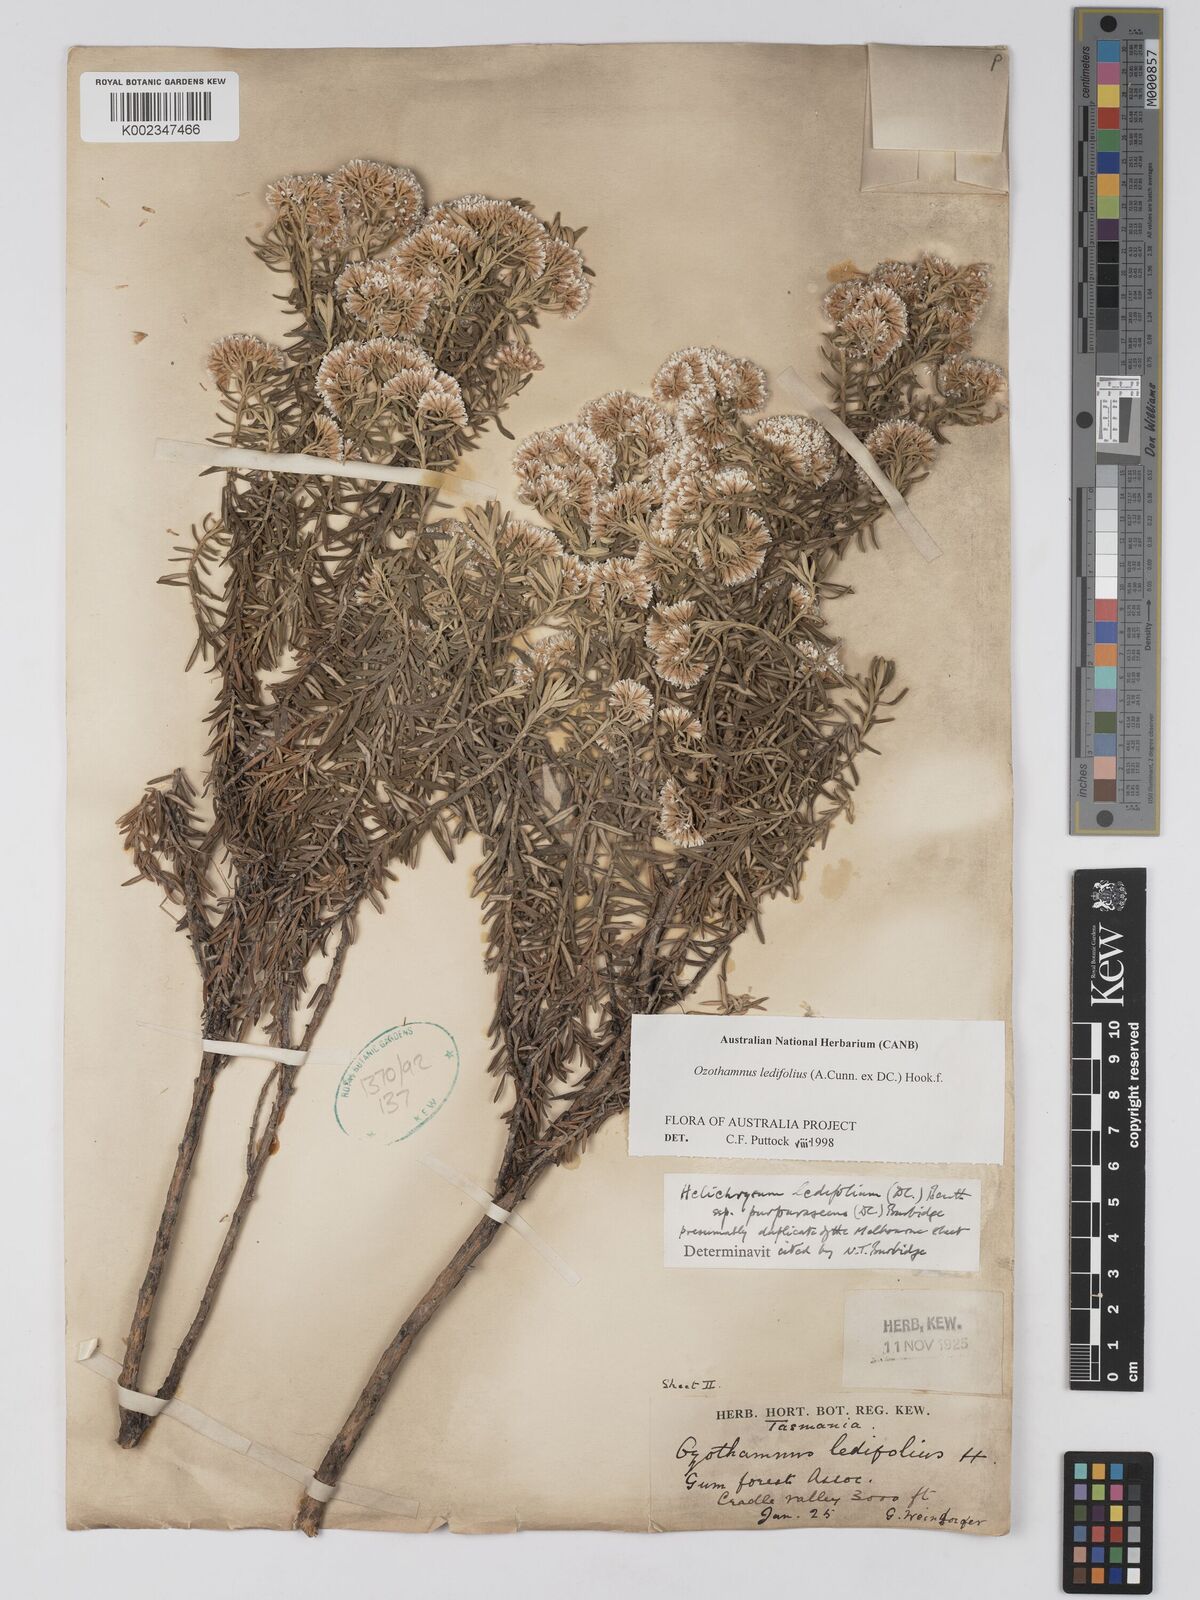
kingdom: Plantae
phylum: Tracheophyta
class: Magnoliopsida
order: Asterales
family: Asteraceae
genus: Ozothamnus
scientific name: Ozothamnus ledifolius
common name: Kerosene-weed
